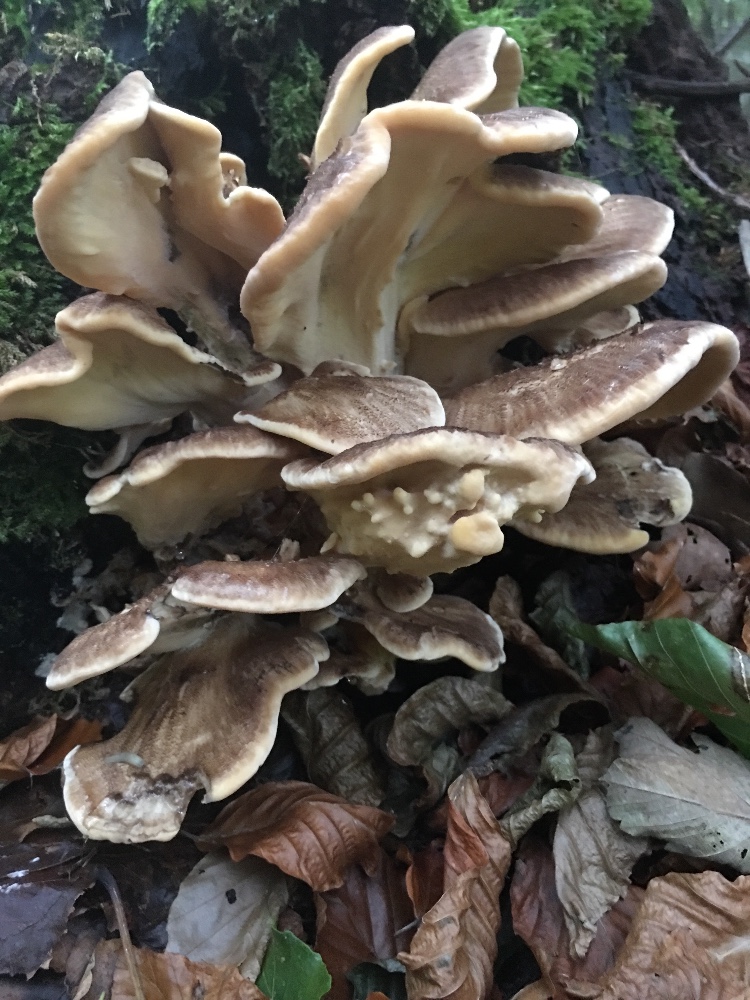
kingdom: Fungi
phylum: Basidiomycota
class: Agaricomycetes
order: Polyporales
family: Meripilaceae
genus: Meripilus
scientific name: Meripilus
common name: kæmpeporesvamp
